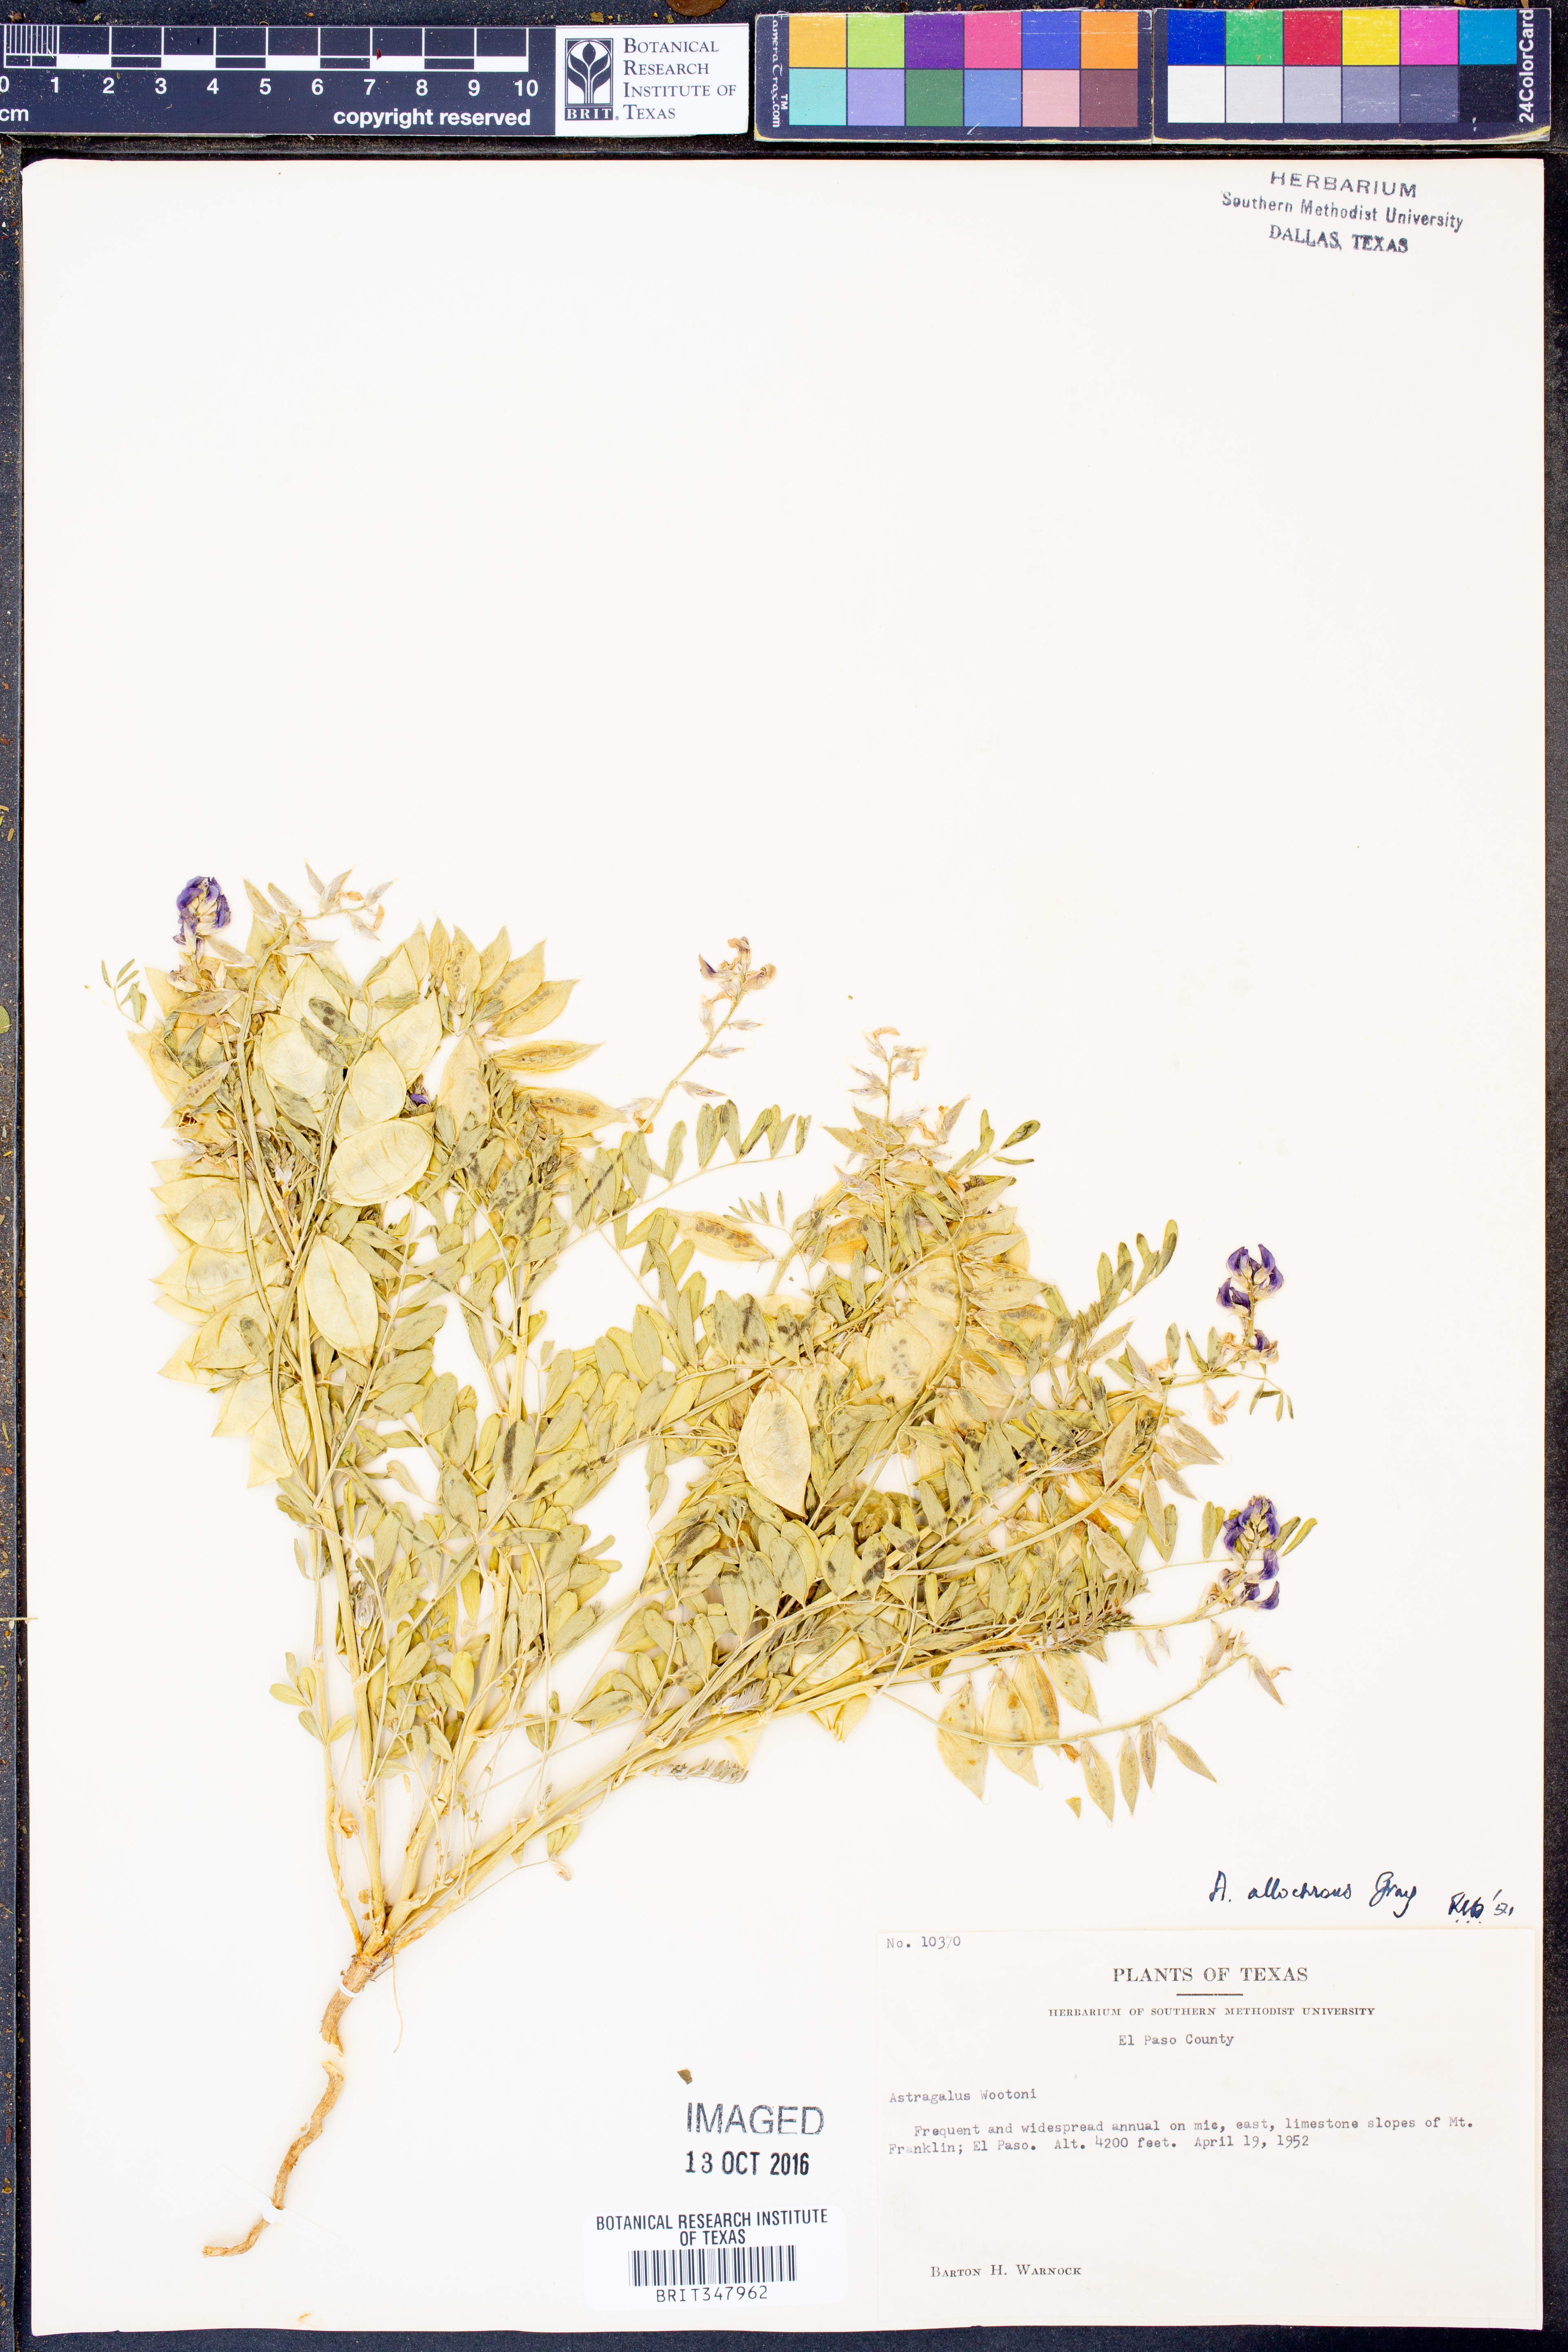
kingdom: Plantae
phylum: Tracheophyta
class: Magnoliopsida
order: Fabales
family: Fabaceae
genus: Astragalus
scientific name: Astragalus allochrous
